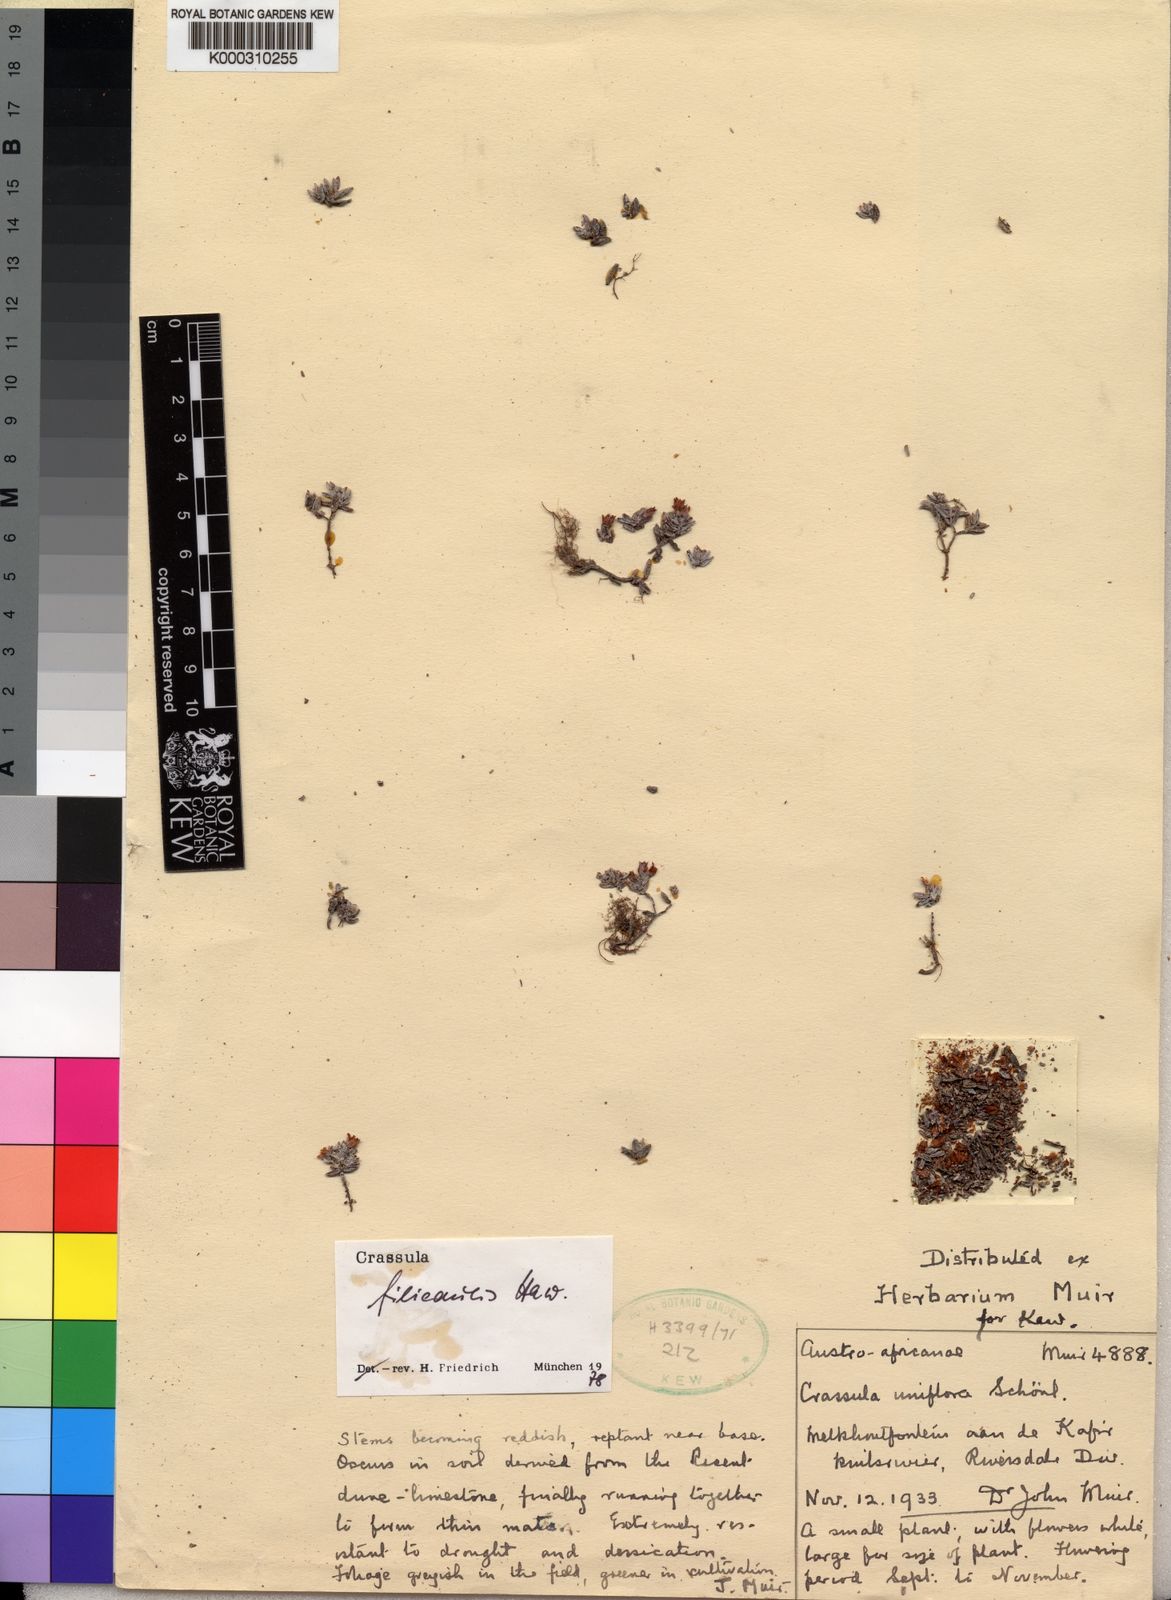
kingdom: Plantae
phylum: Tracheophyta
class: Magnoliopsida
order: Saxifragales
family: Crassulaceae
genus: Crassula
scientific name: Crassula expansa
